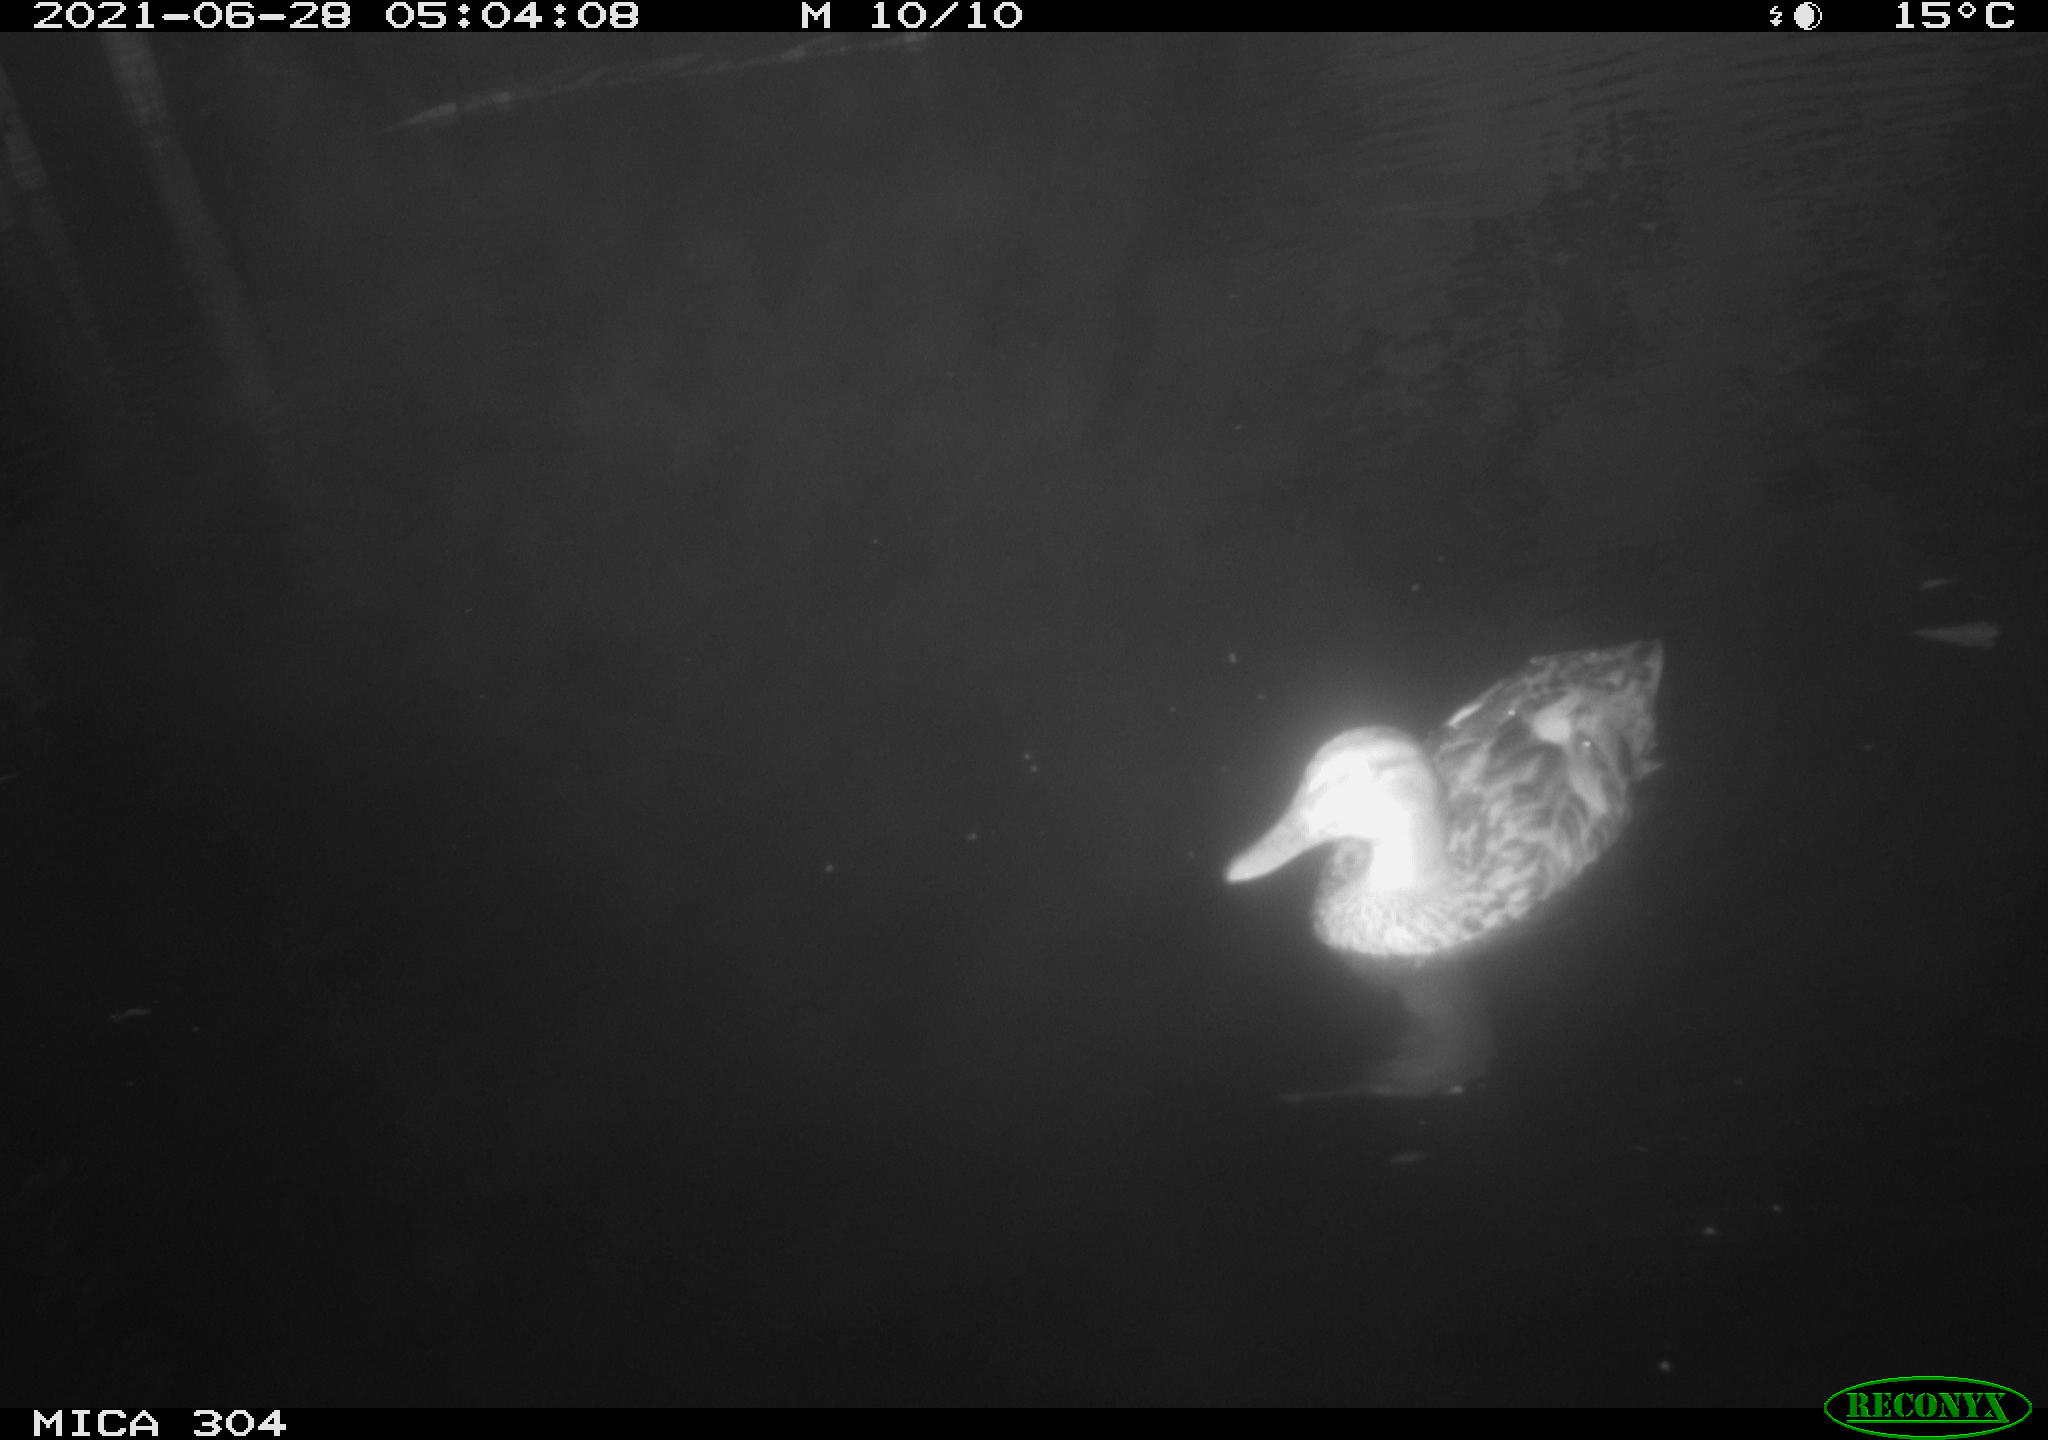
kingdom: Animalia
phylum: Chordata
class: Aves
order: Anseriformes
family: Anatidae
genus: Mareca
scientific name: Mareca strepera
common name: Gadwall
